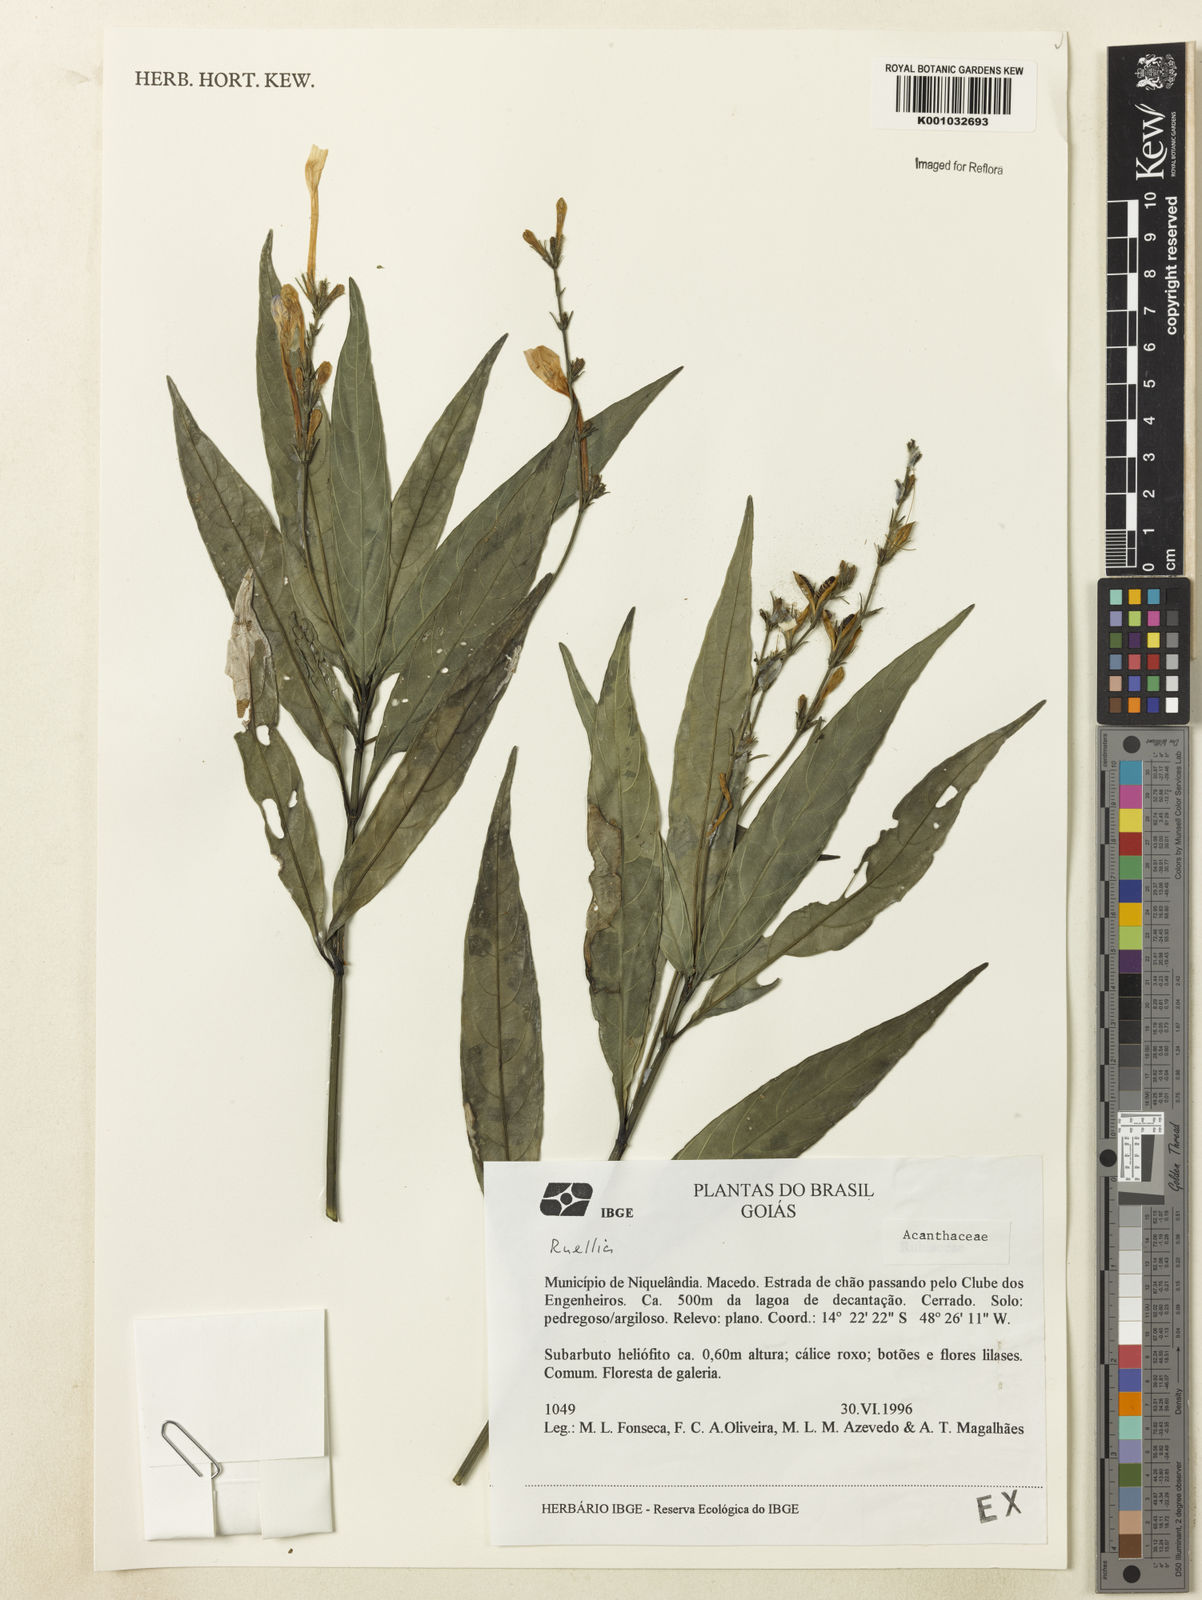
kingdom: Plantae
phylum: Tracheophyta
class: Magnoliopsida
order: Lamiales
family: Acanthaceae
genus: Ruellia
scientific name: Ruellia
